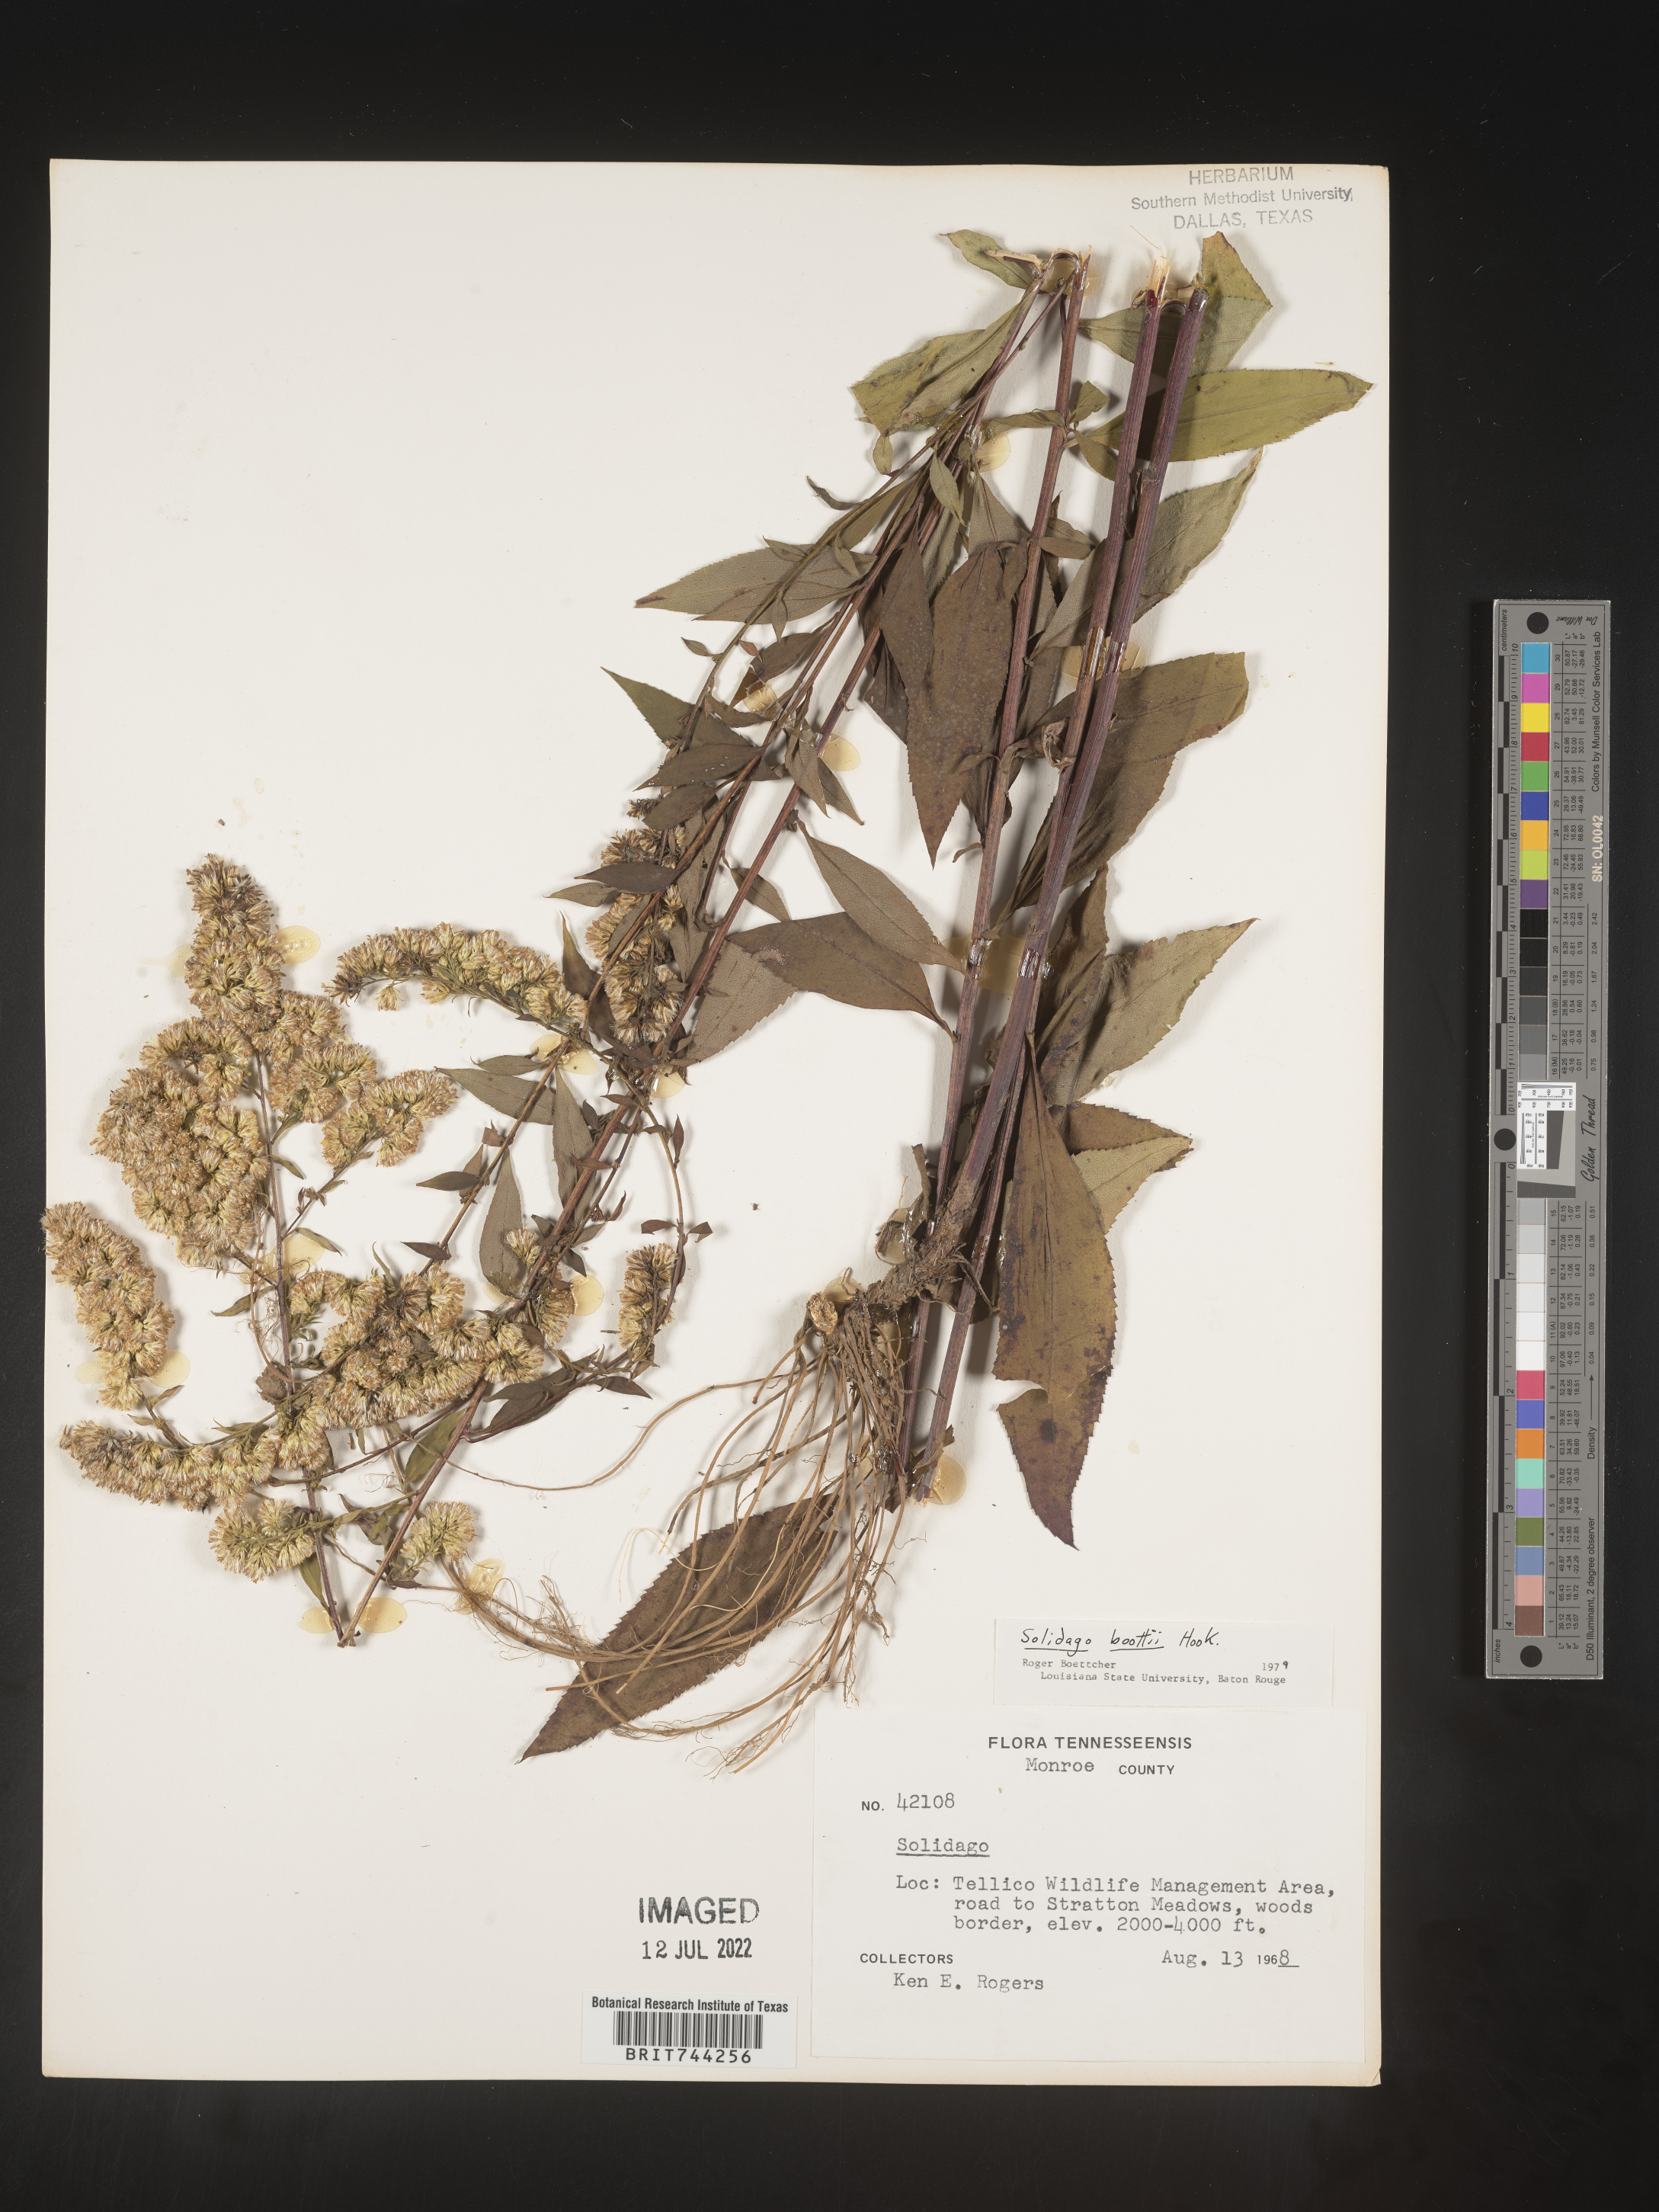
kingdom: Plantae
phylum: Tracheophyta
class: Magnoliopsida
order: Asterales
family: Asteraceae
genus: Solidago
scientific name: Solidago vaseyi
